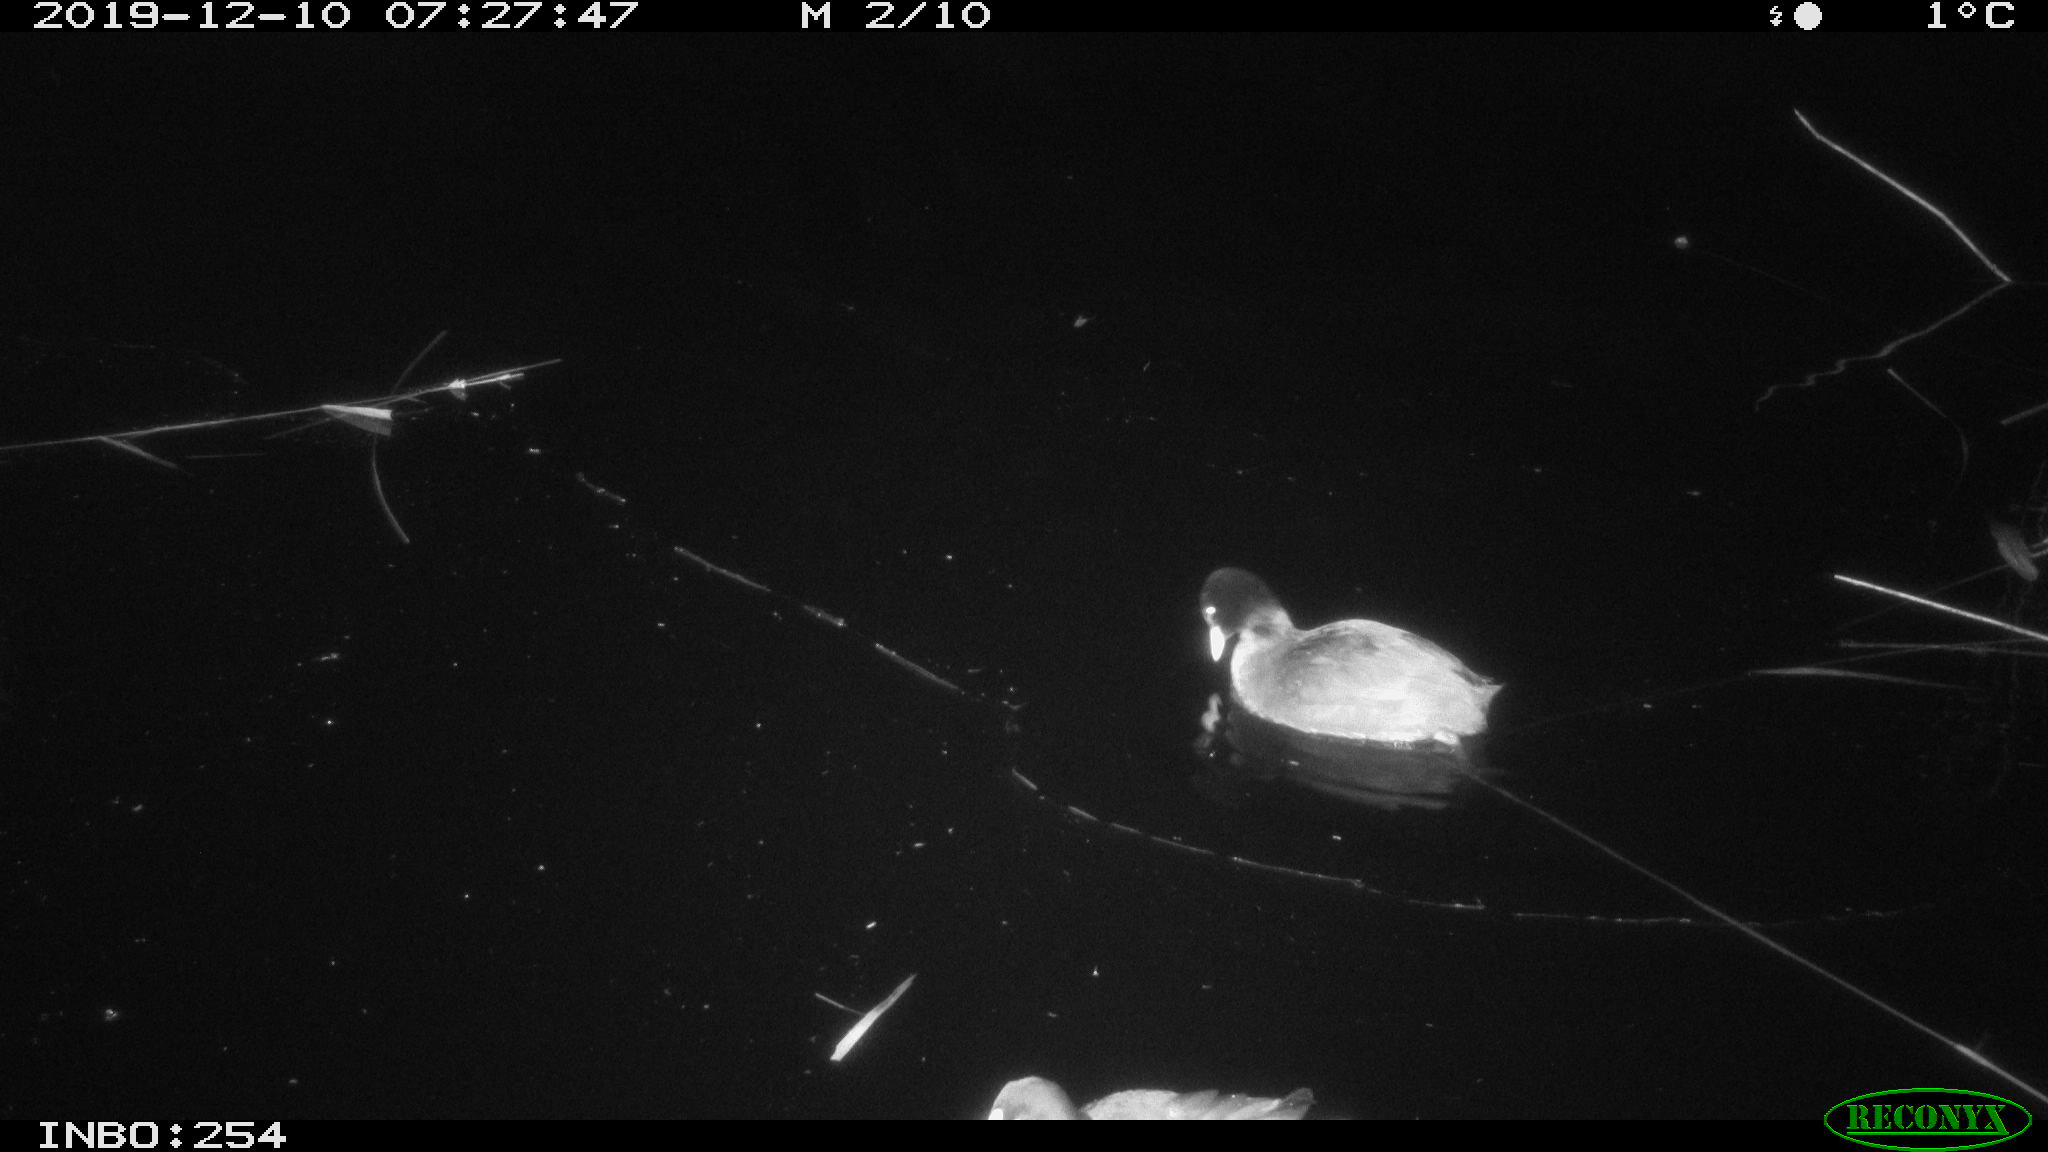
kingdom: Animalia
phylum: Chordata
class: Aves
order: Gruiformes
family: Rallidae
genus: Fulica
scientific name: Fulica atra
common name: Eurasian coot
